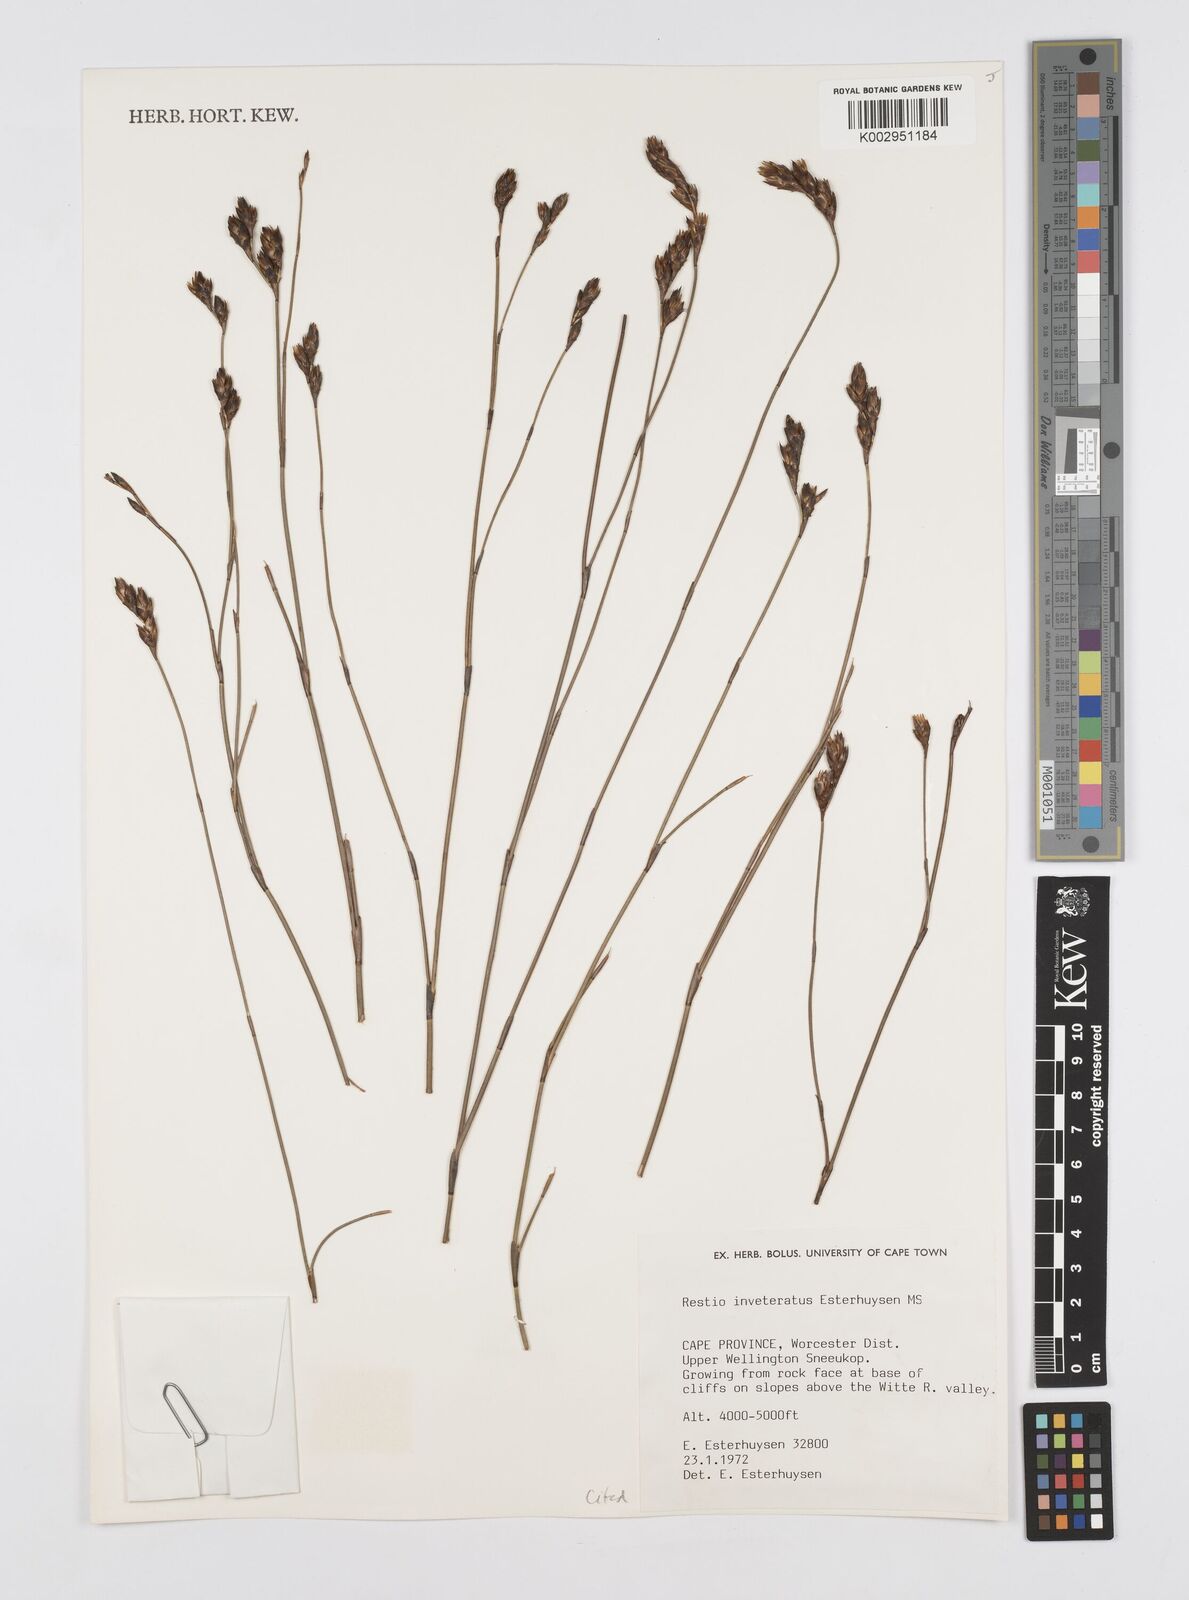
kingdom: Plantae
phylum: Tracheophyta
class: Liliopsida
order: Poales
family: Restionaceae
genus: Restio
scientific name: Restio inveteratus
